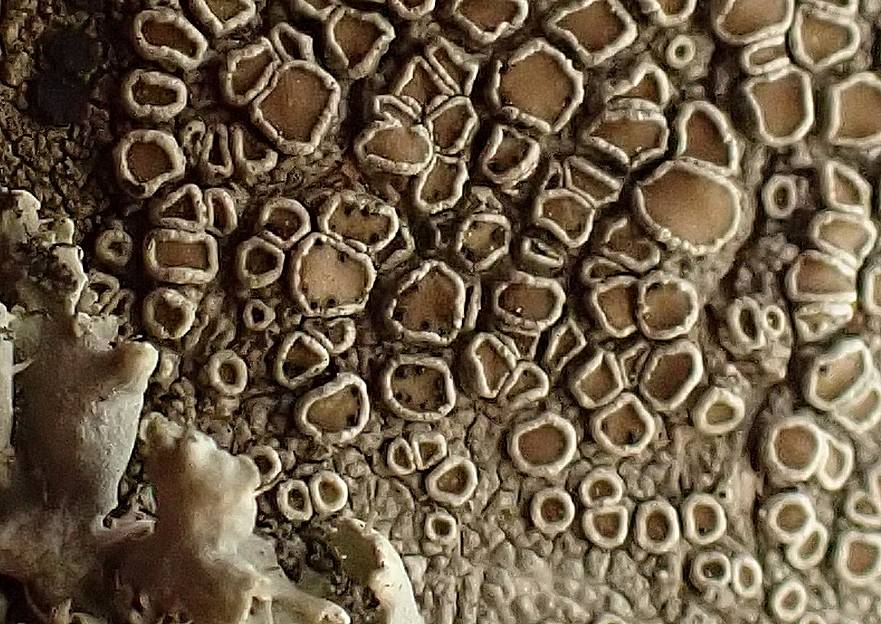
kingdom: Fungi
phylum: Ascomycota
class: Dothideomycetes
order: Pleosporales
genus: Vouauxiella
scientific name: Vouauxiella lichenicola
